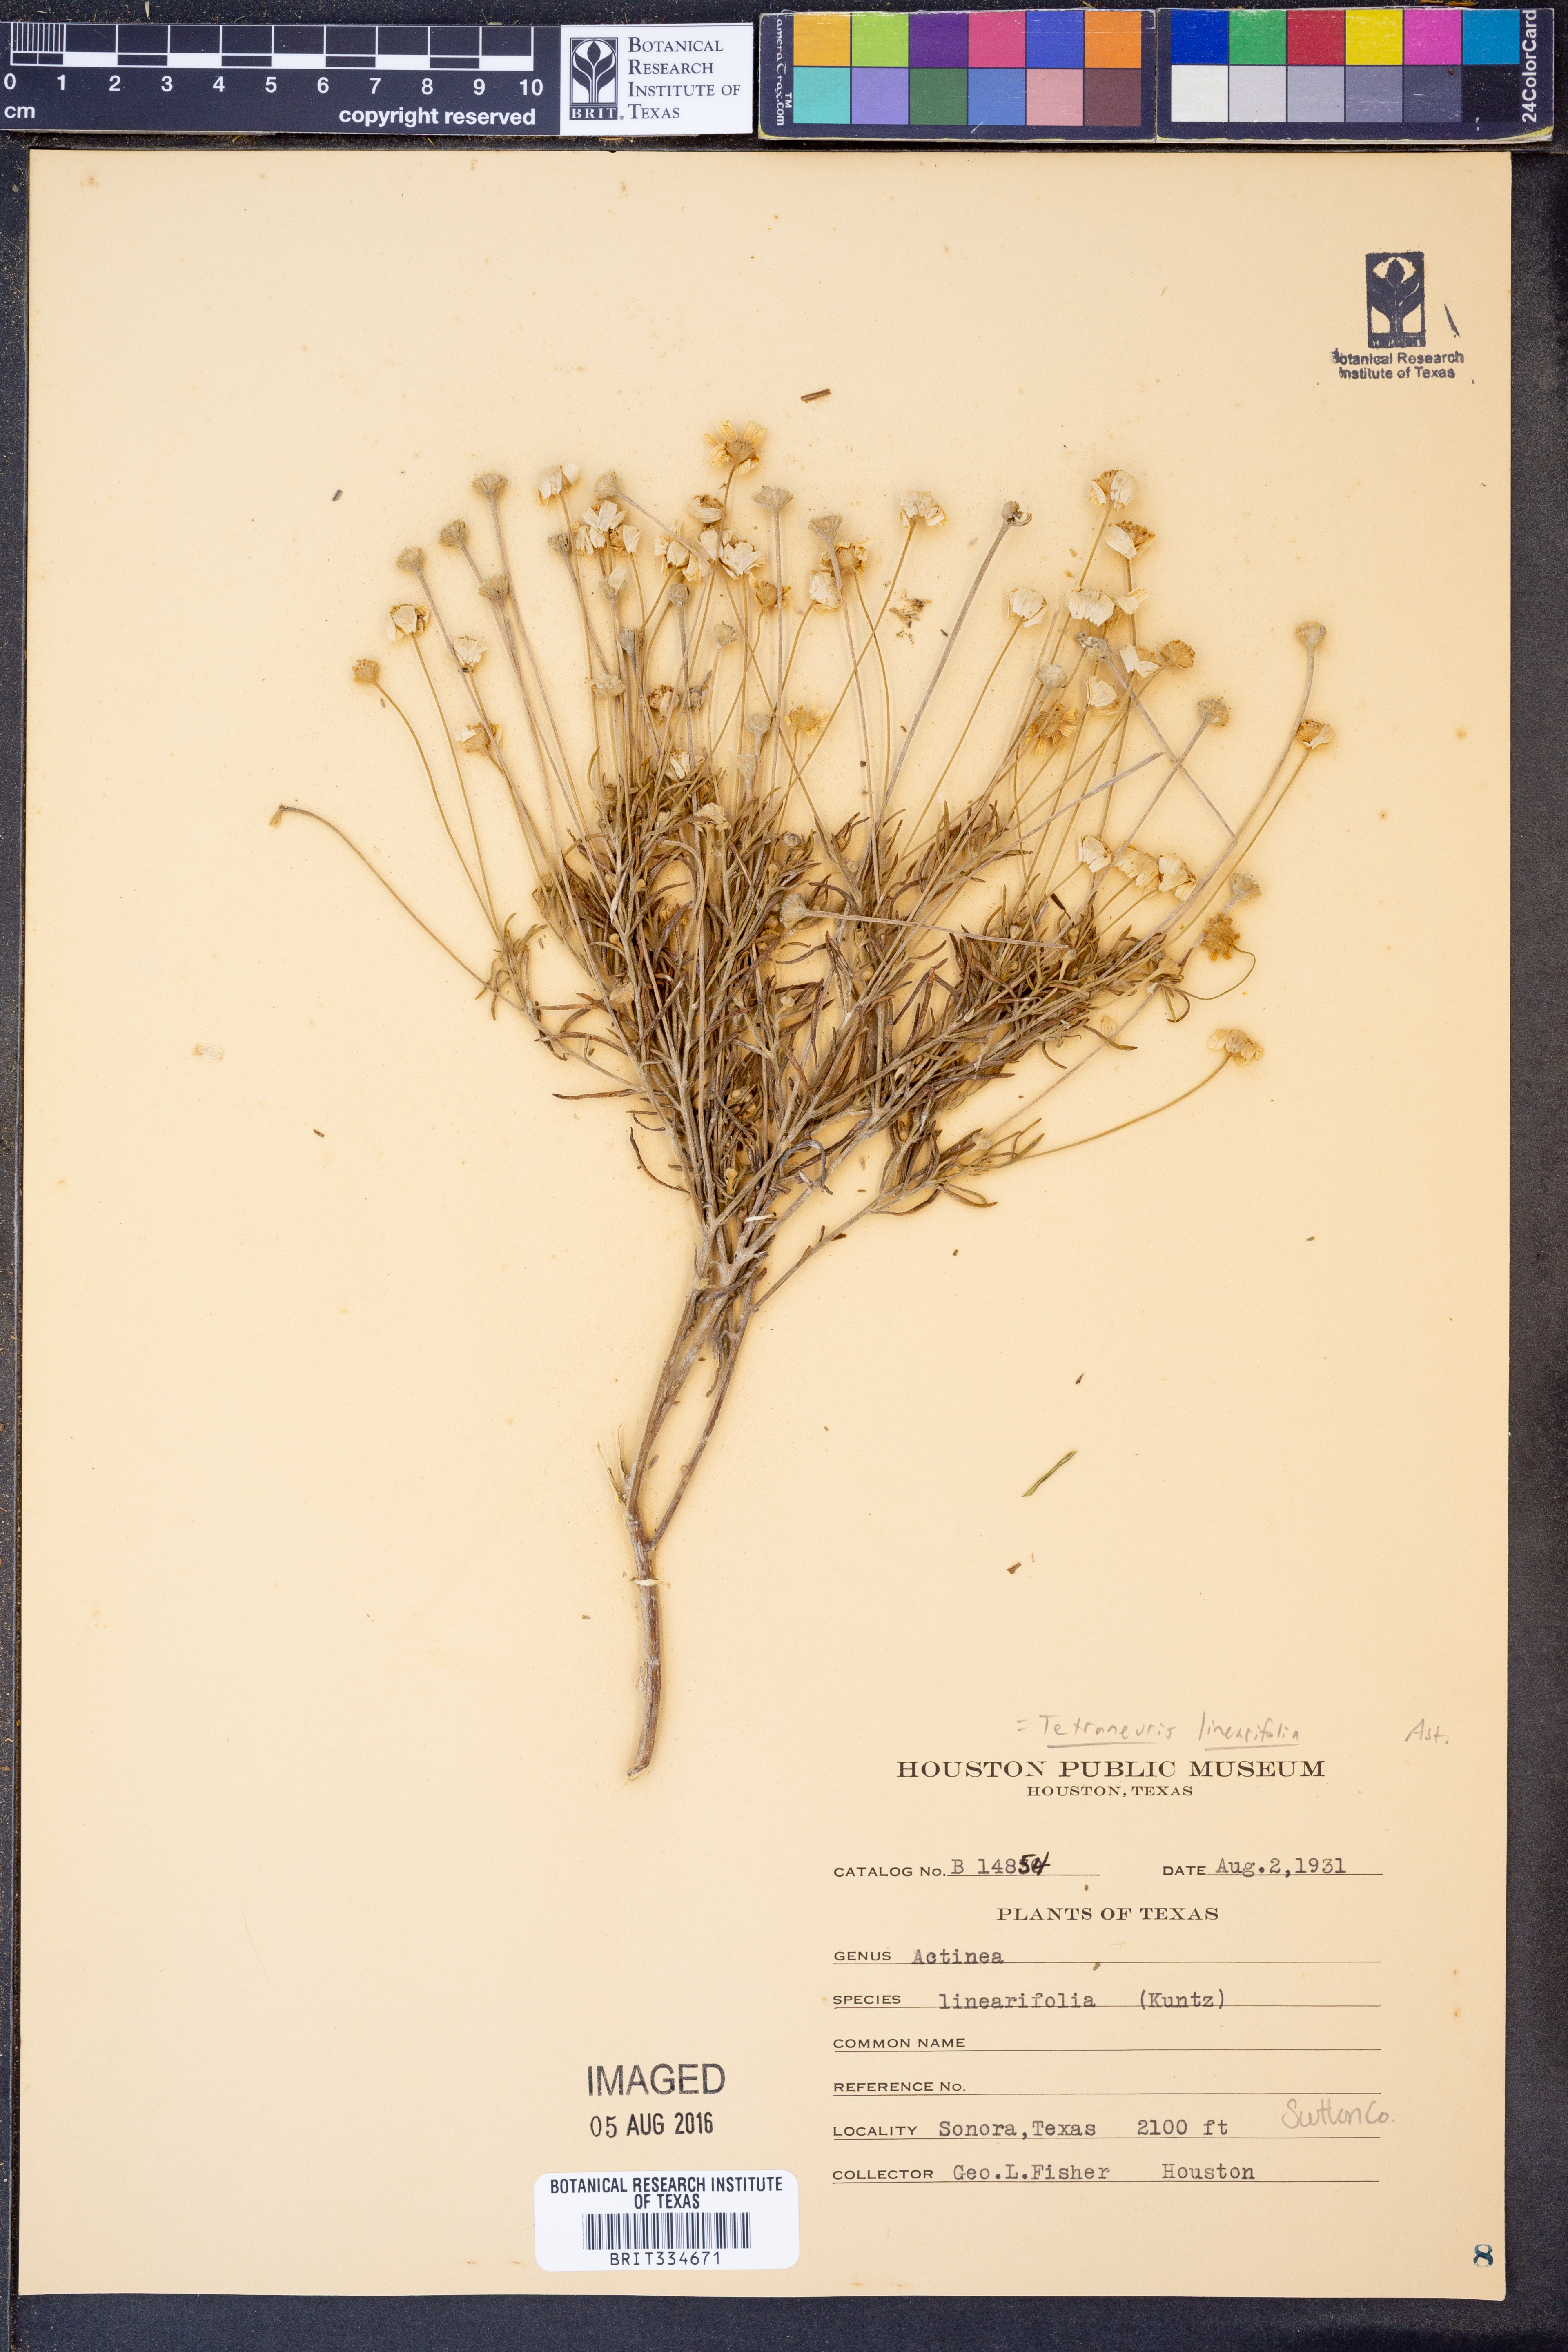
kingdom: Plantae
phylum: Tracheophyta
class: Magnoliopsida
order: Asterales
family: Asteraceae
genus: Tetraneuris
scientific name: Tetraneuris linearifolia
